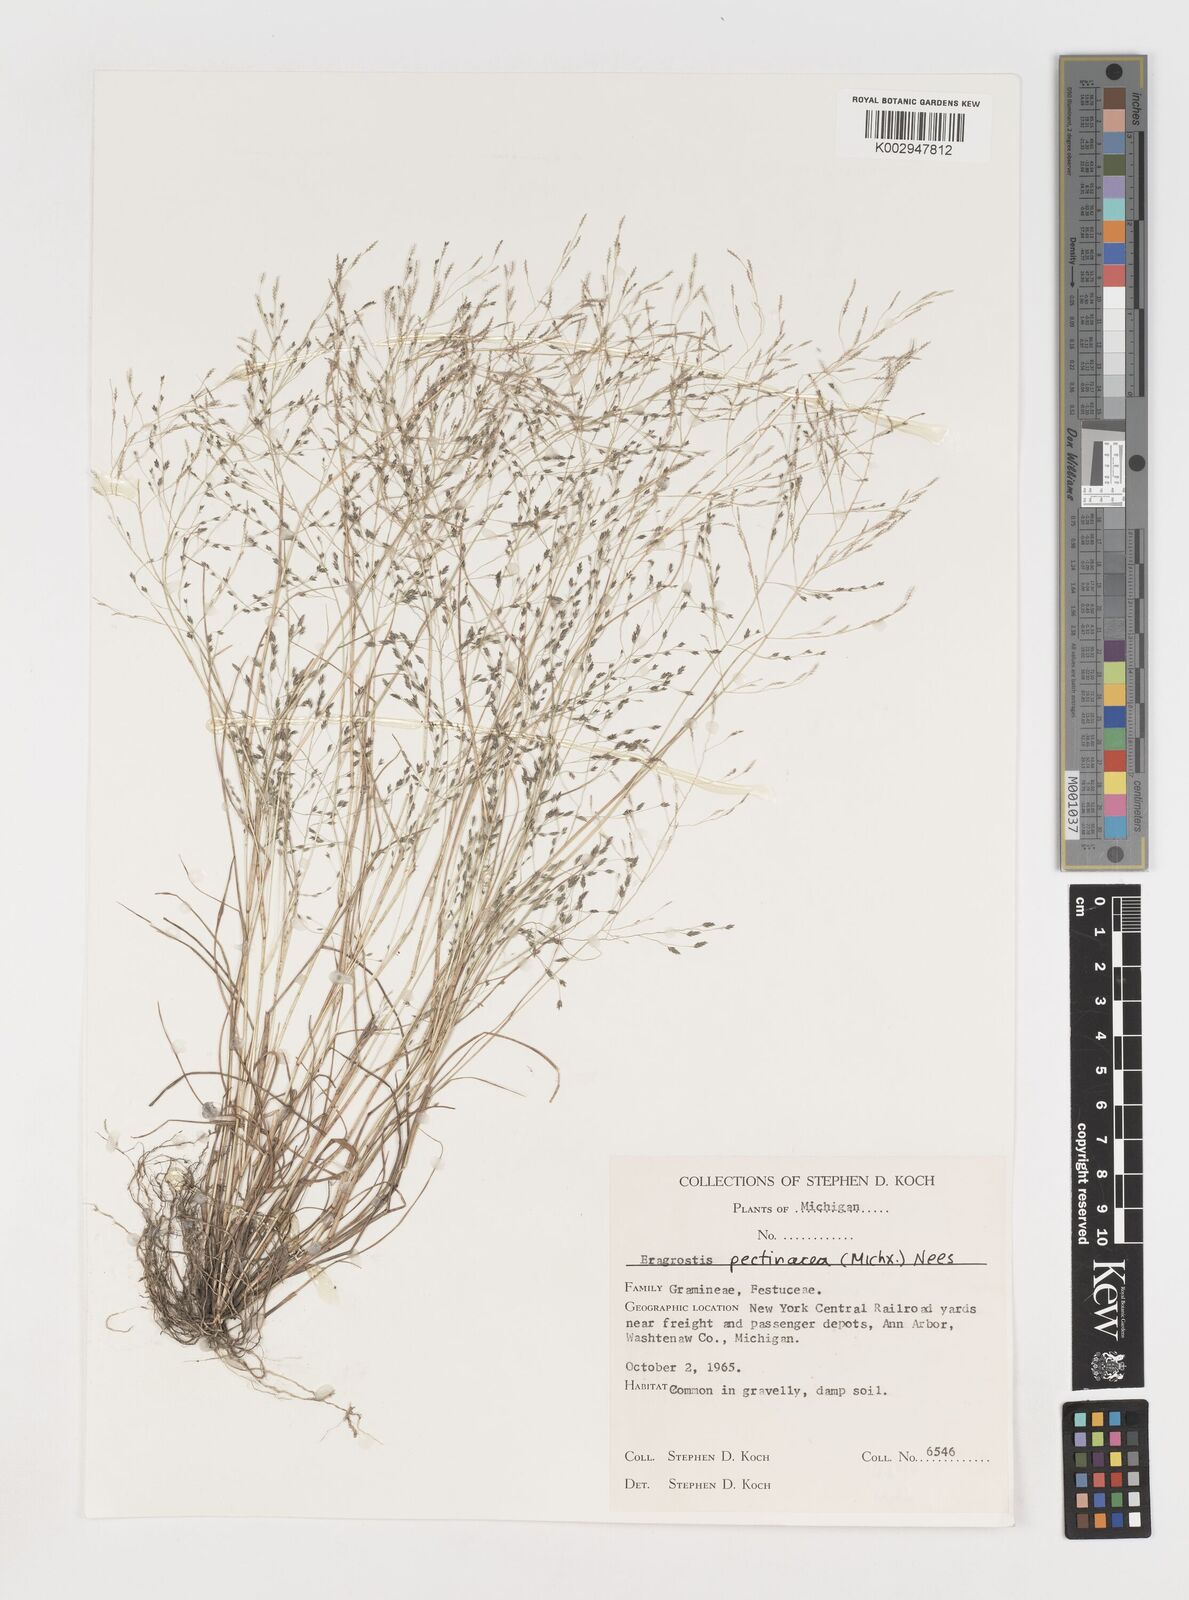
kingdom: Plantae
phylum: Tracheophyta
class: Liliopsida
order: Poales
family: Poaceae
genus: Eragrostis
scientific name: Eragrostis pectinacea
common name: Tufted lovegrass
